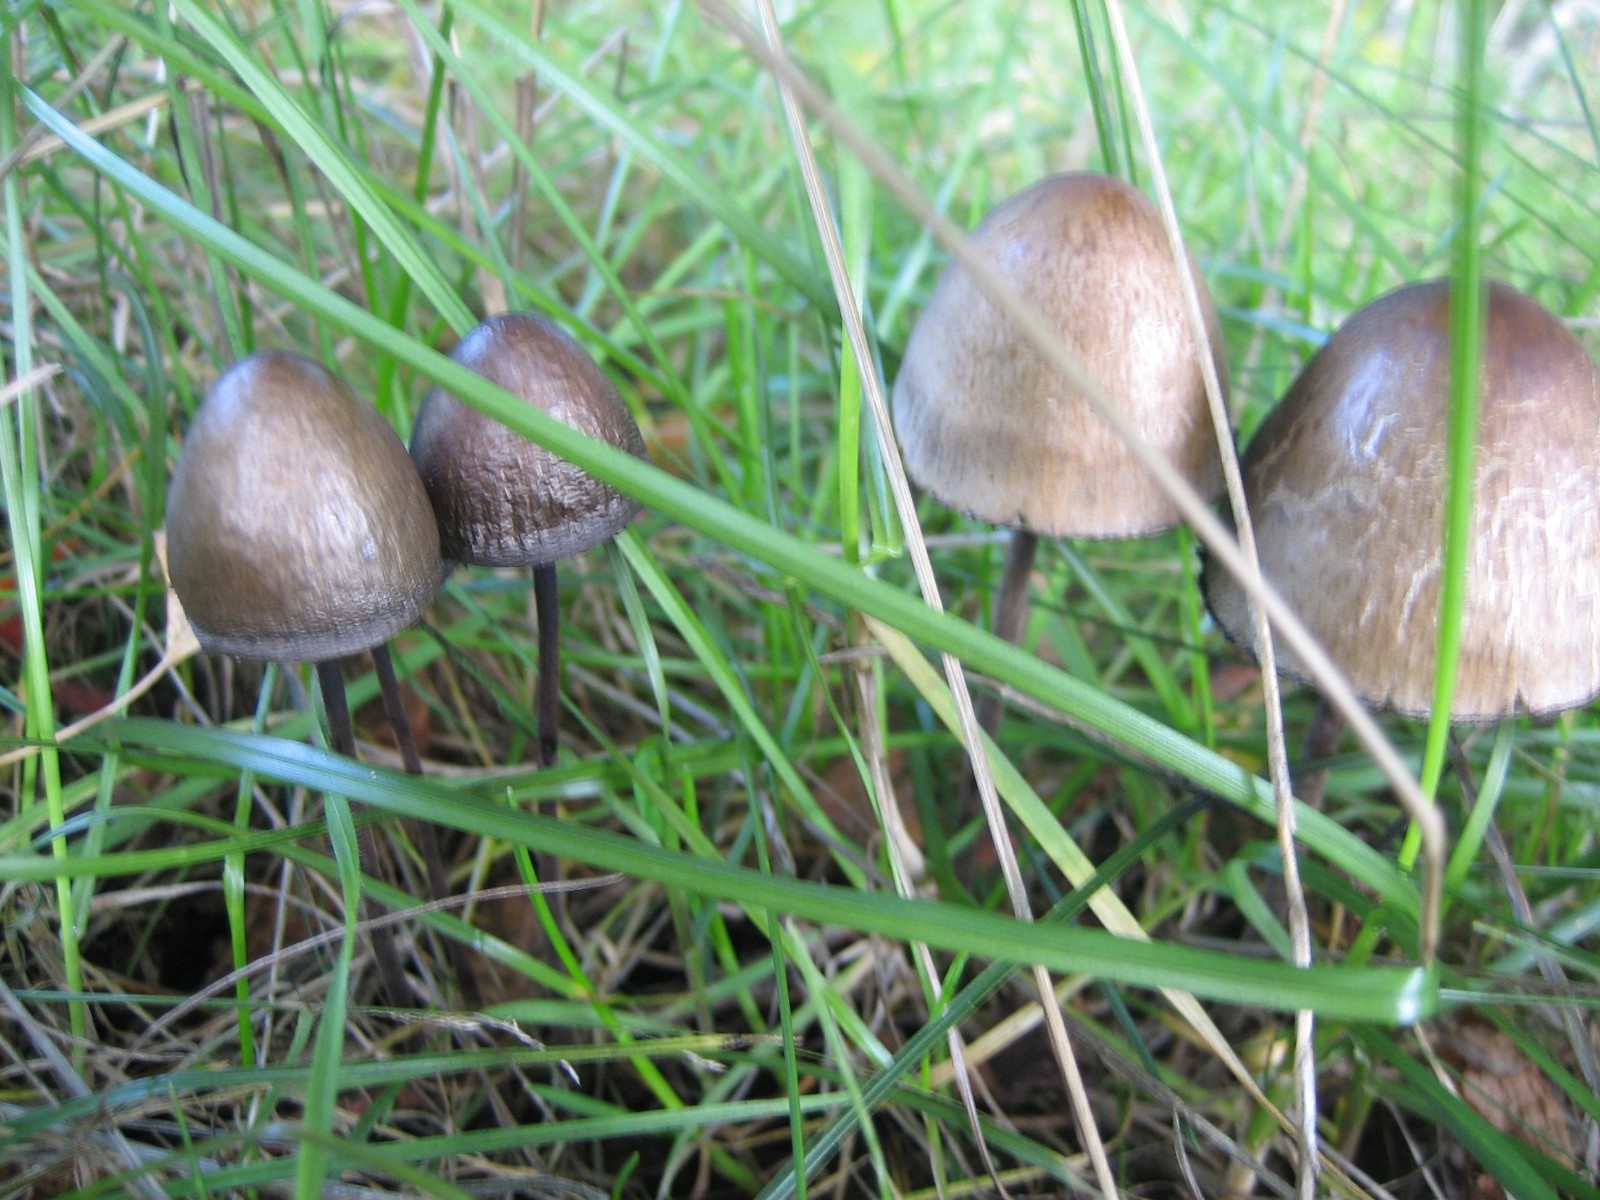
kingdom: Fungi
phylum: Basidiomycota
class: Agaricomycetes
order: Agaricales
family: Bolbitiaceae
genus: Panaeolus
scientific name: Panaeolus papilionaceus
